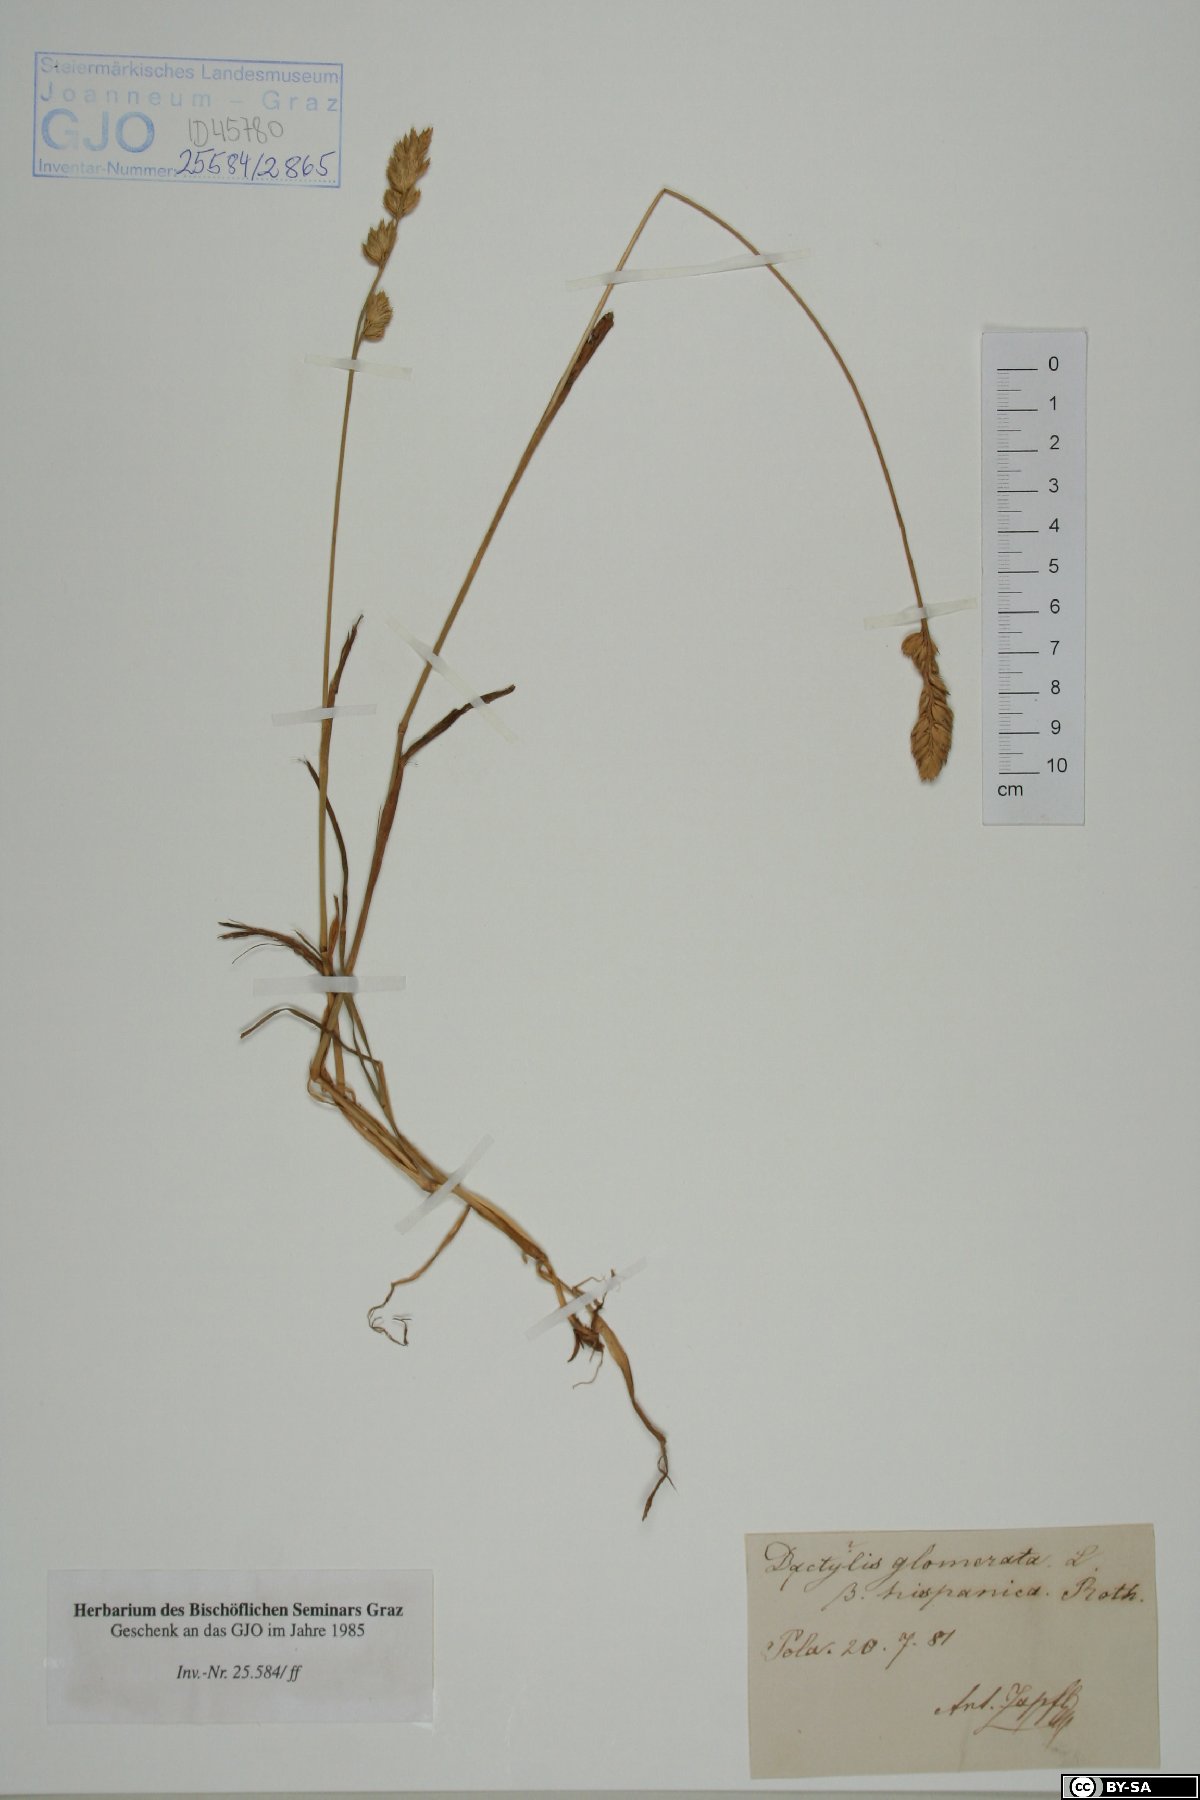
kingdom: Plantae
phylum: Tracheophyta
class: Liliopsida
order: Poales
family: Poaceae
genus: Dactylis
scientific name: Dactylis glomerata
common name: Orchardgrass
